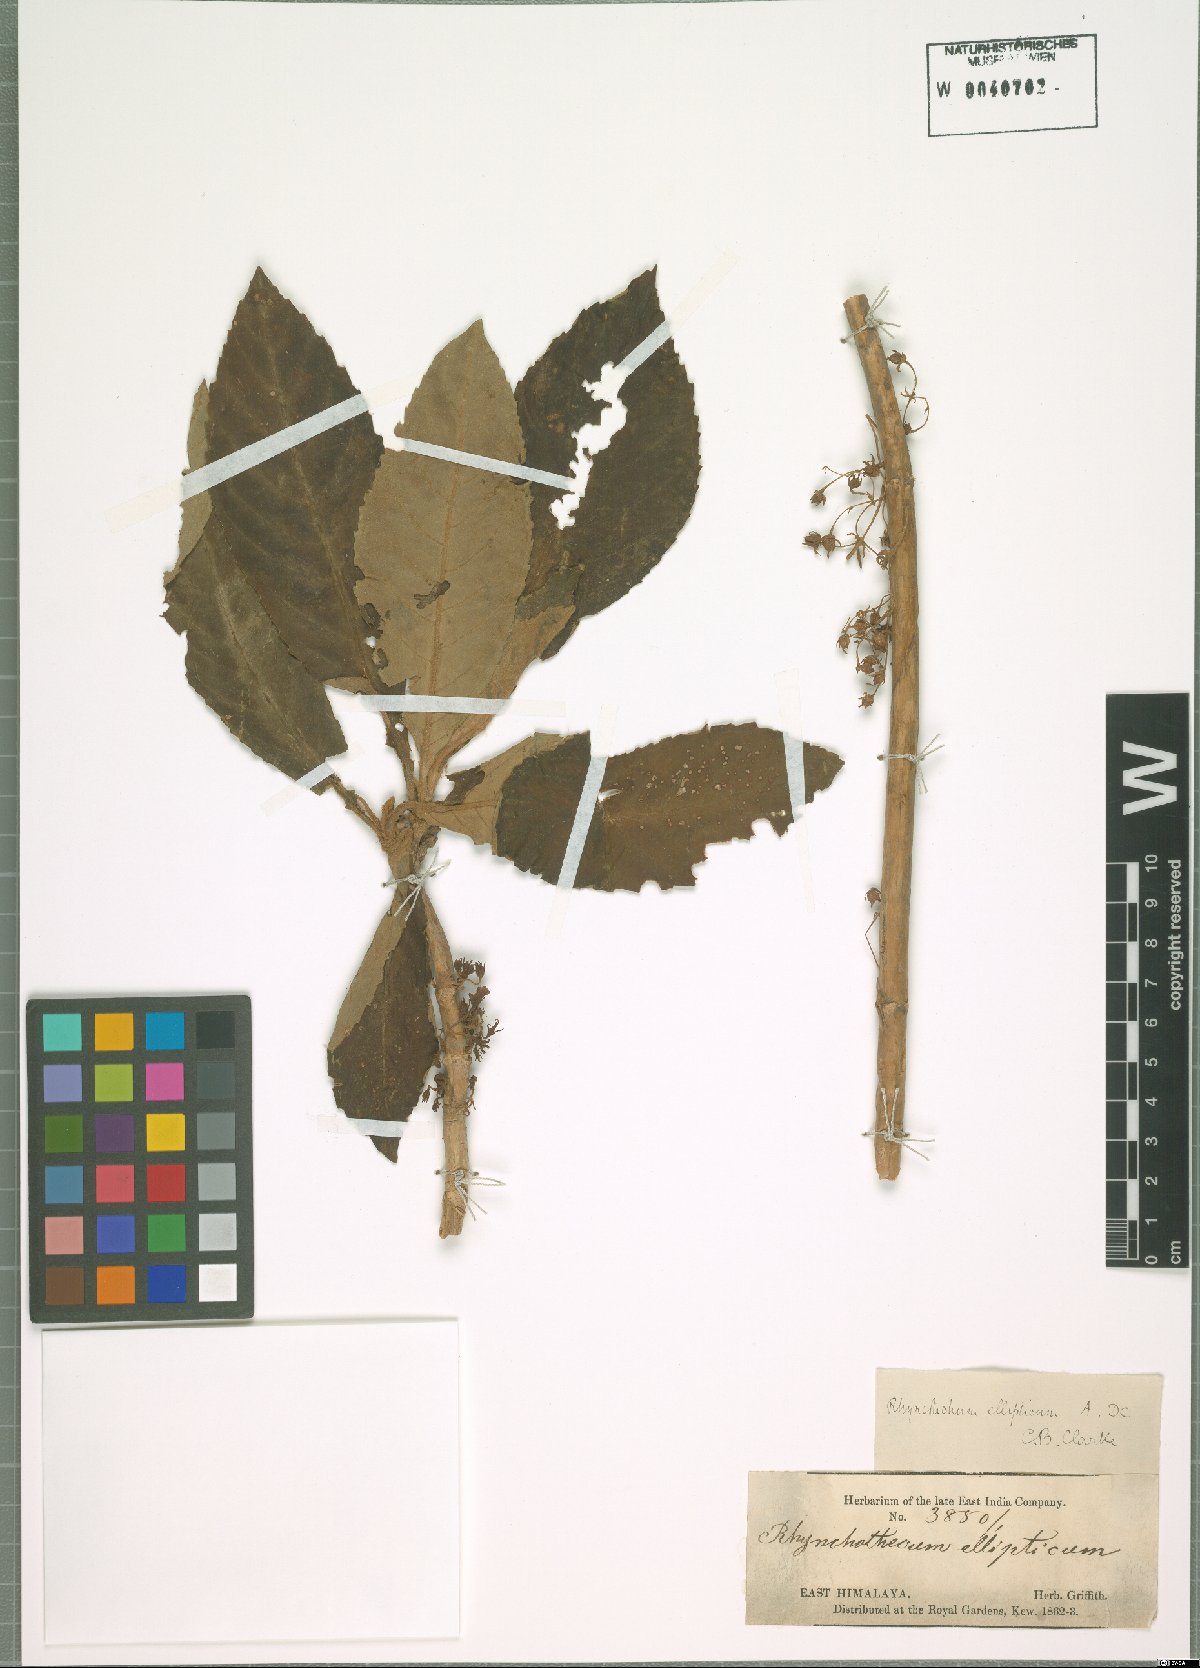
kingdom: Plantae
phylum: Tracheophyta
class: Magnoliopsida
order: Lamiales
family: Gesneriaceae
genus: Rhynchotechum
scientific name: Rhynchotechum
